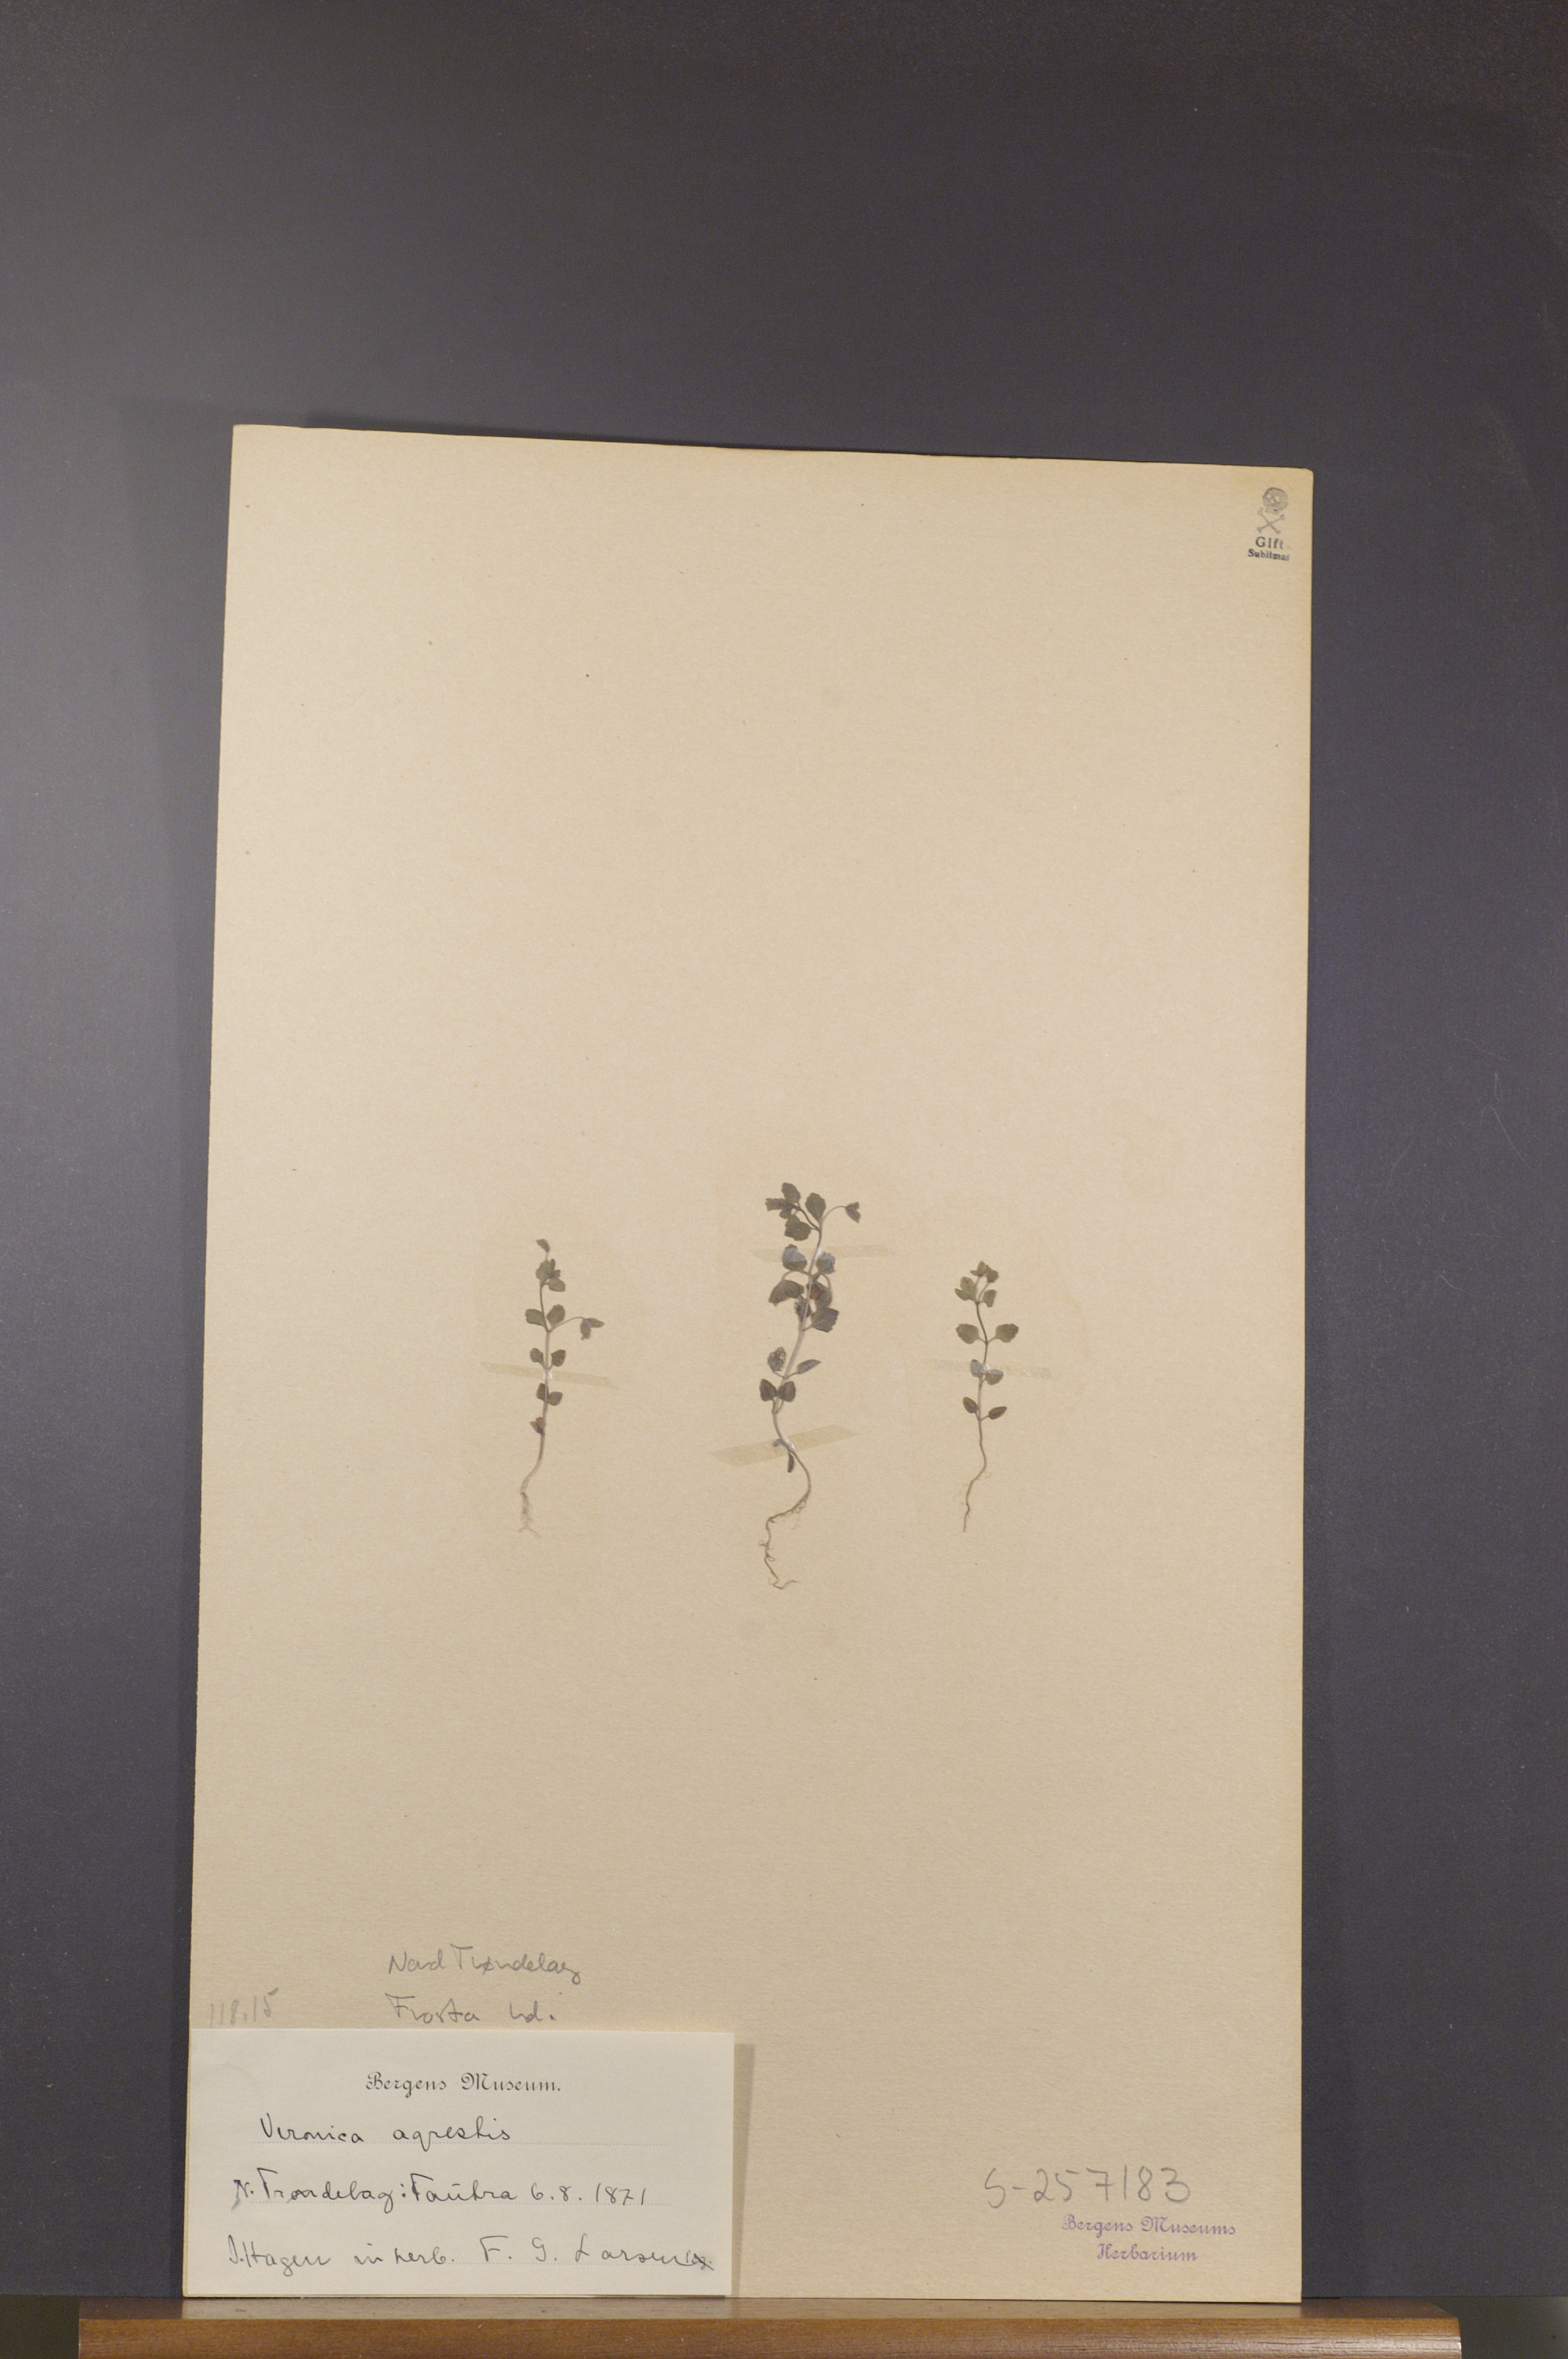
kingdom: Plantae
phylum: Tracheophyta
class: Magnoliopsida
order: Lamiales
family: Plantaginaceae
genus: Veronica
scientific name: Veronica agrestis
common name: Green field-speedwell
